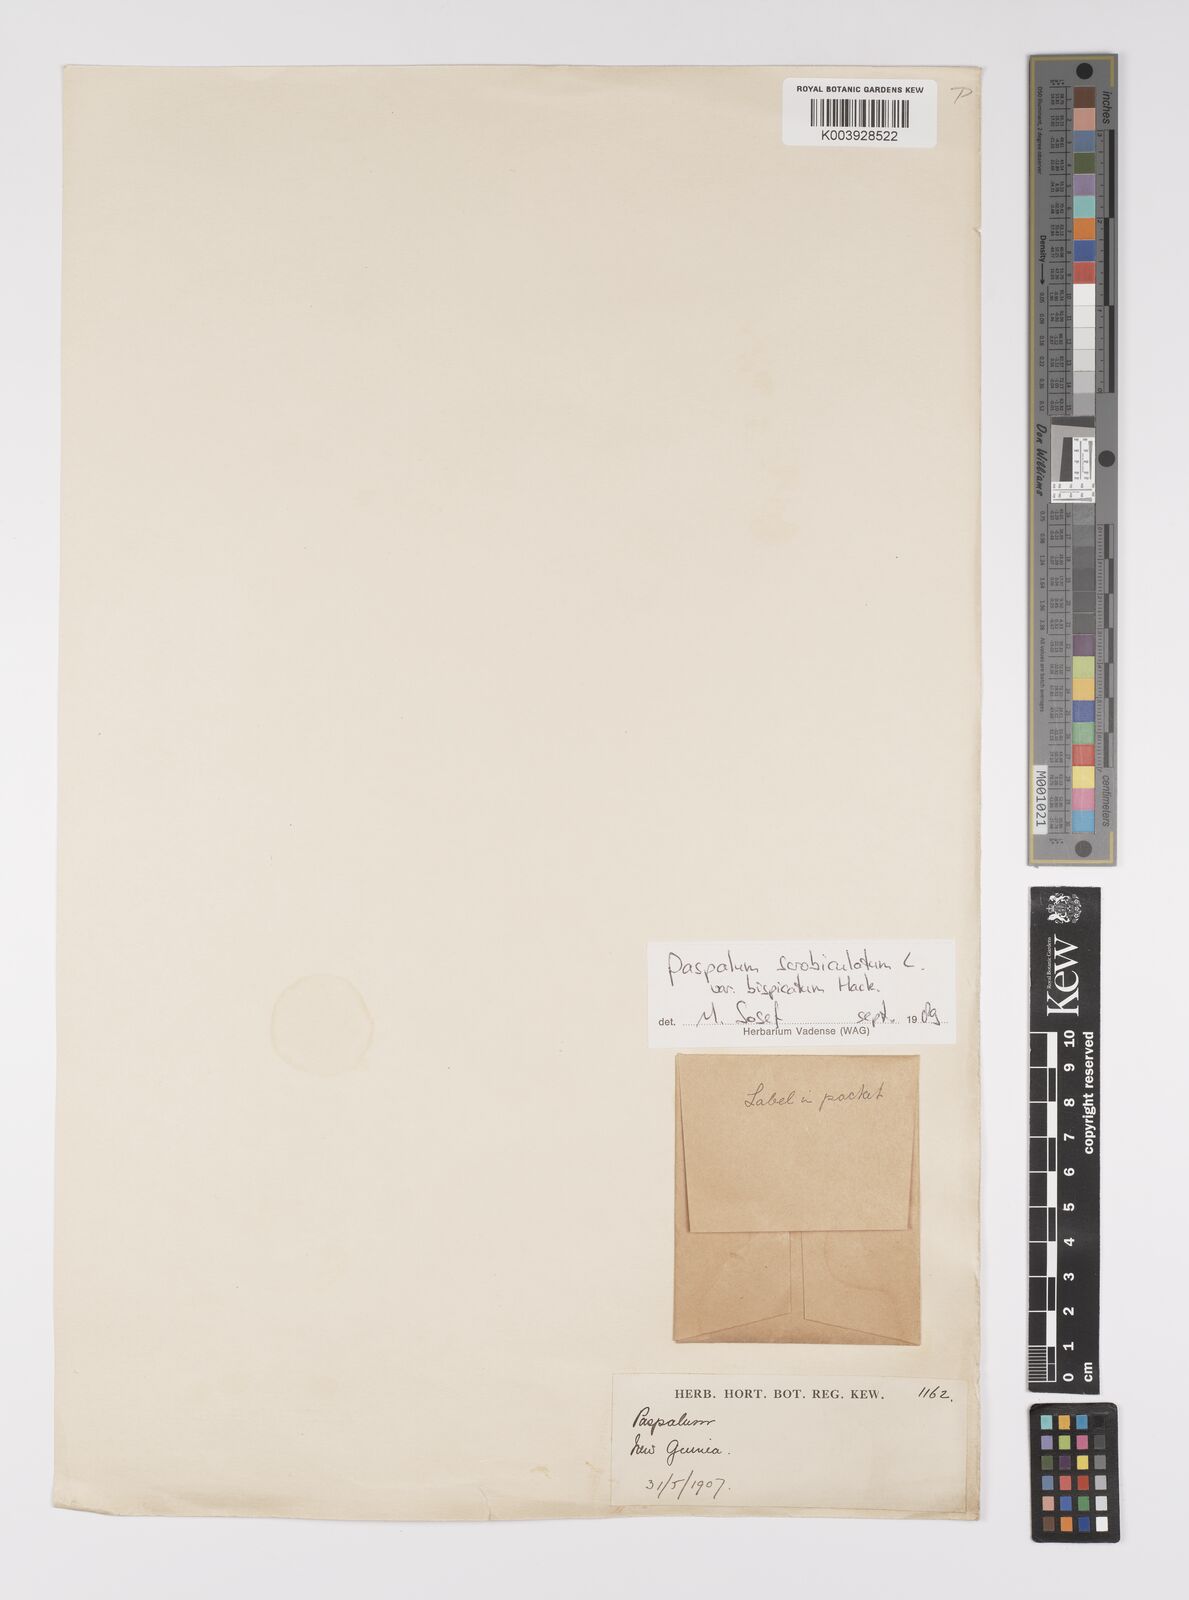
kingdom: Plantae
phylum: Tracheophyta
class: Liliopsida
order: Poales
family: Poaceae
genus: Paspalum
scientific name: Paspalum scrobiculatum
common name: Kodo millet
